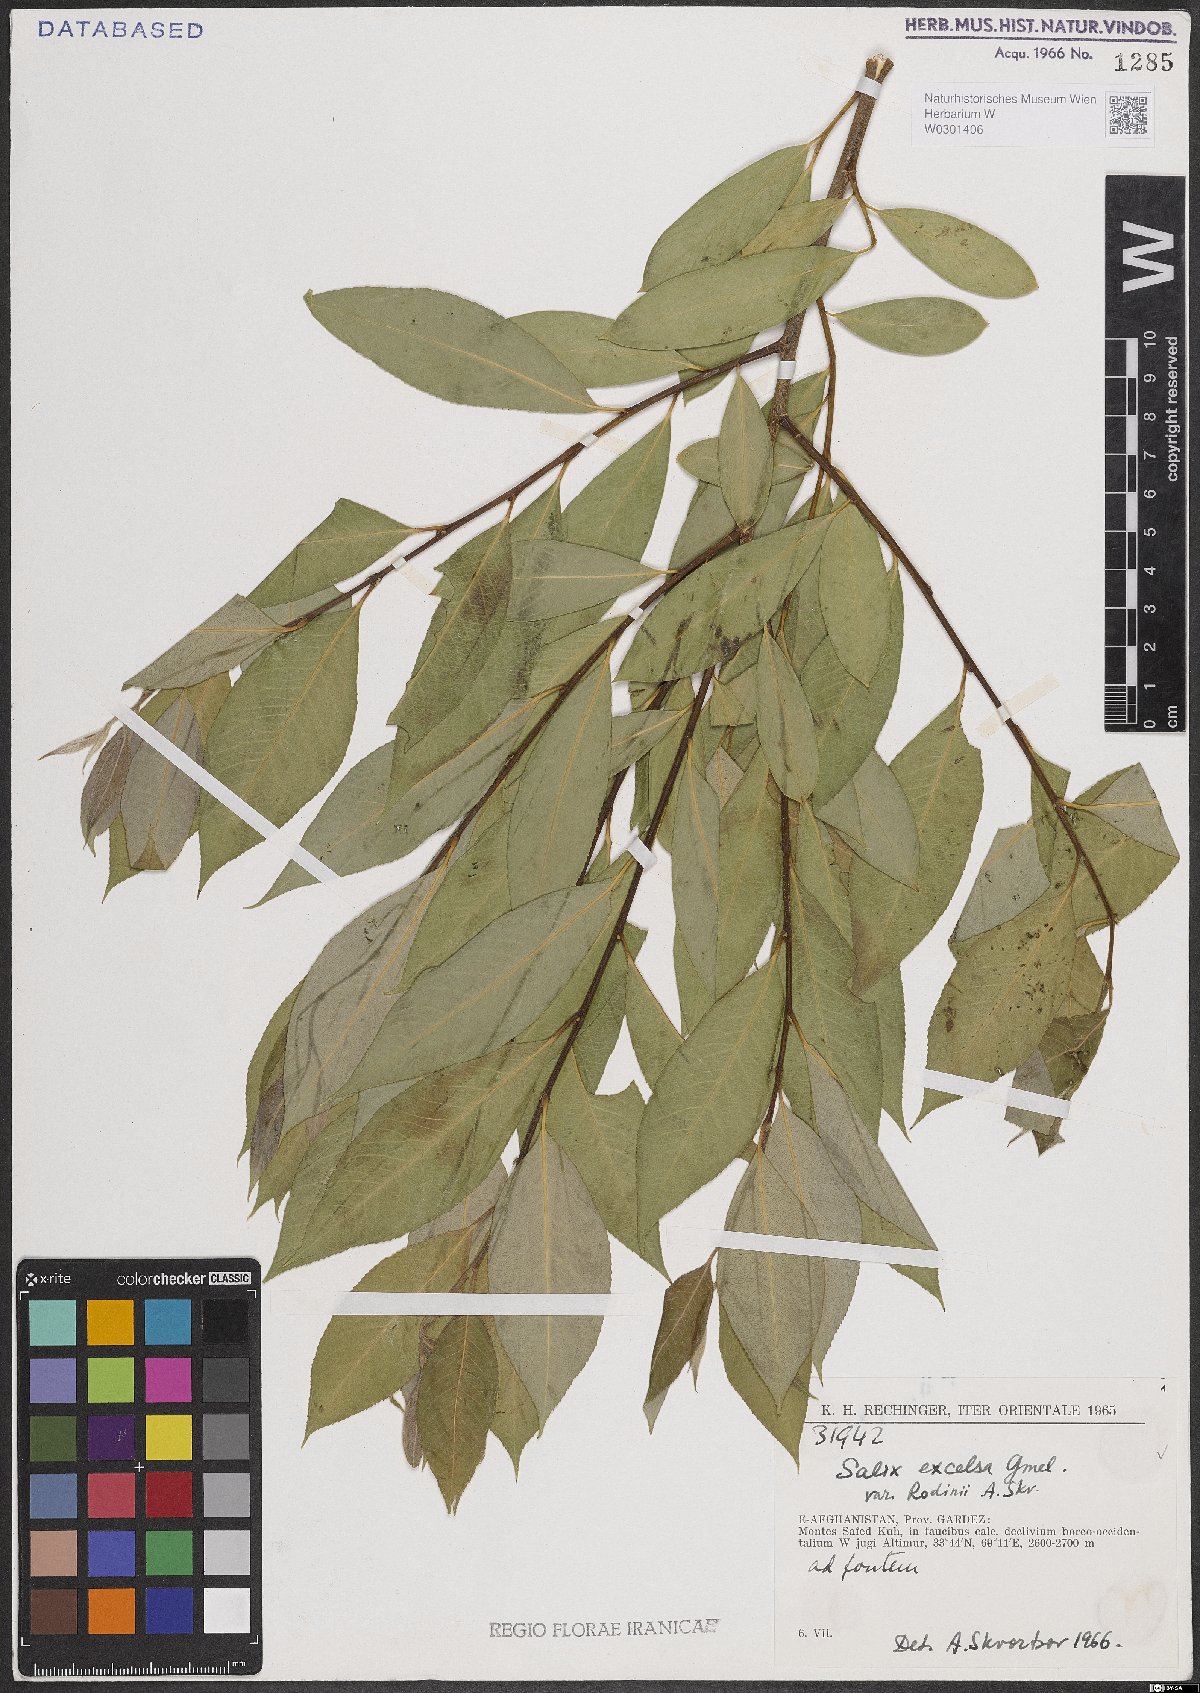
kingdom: Plantae
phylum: Tracheophyta
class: Magnoliopsida
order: Malpighiales
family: Salicaceae
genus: Salix
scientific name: Salix excelsa
